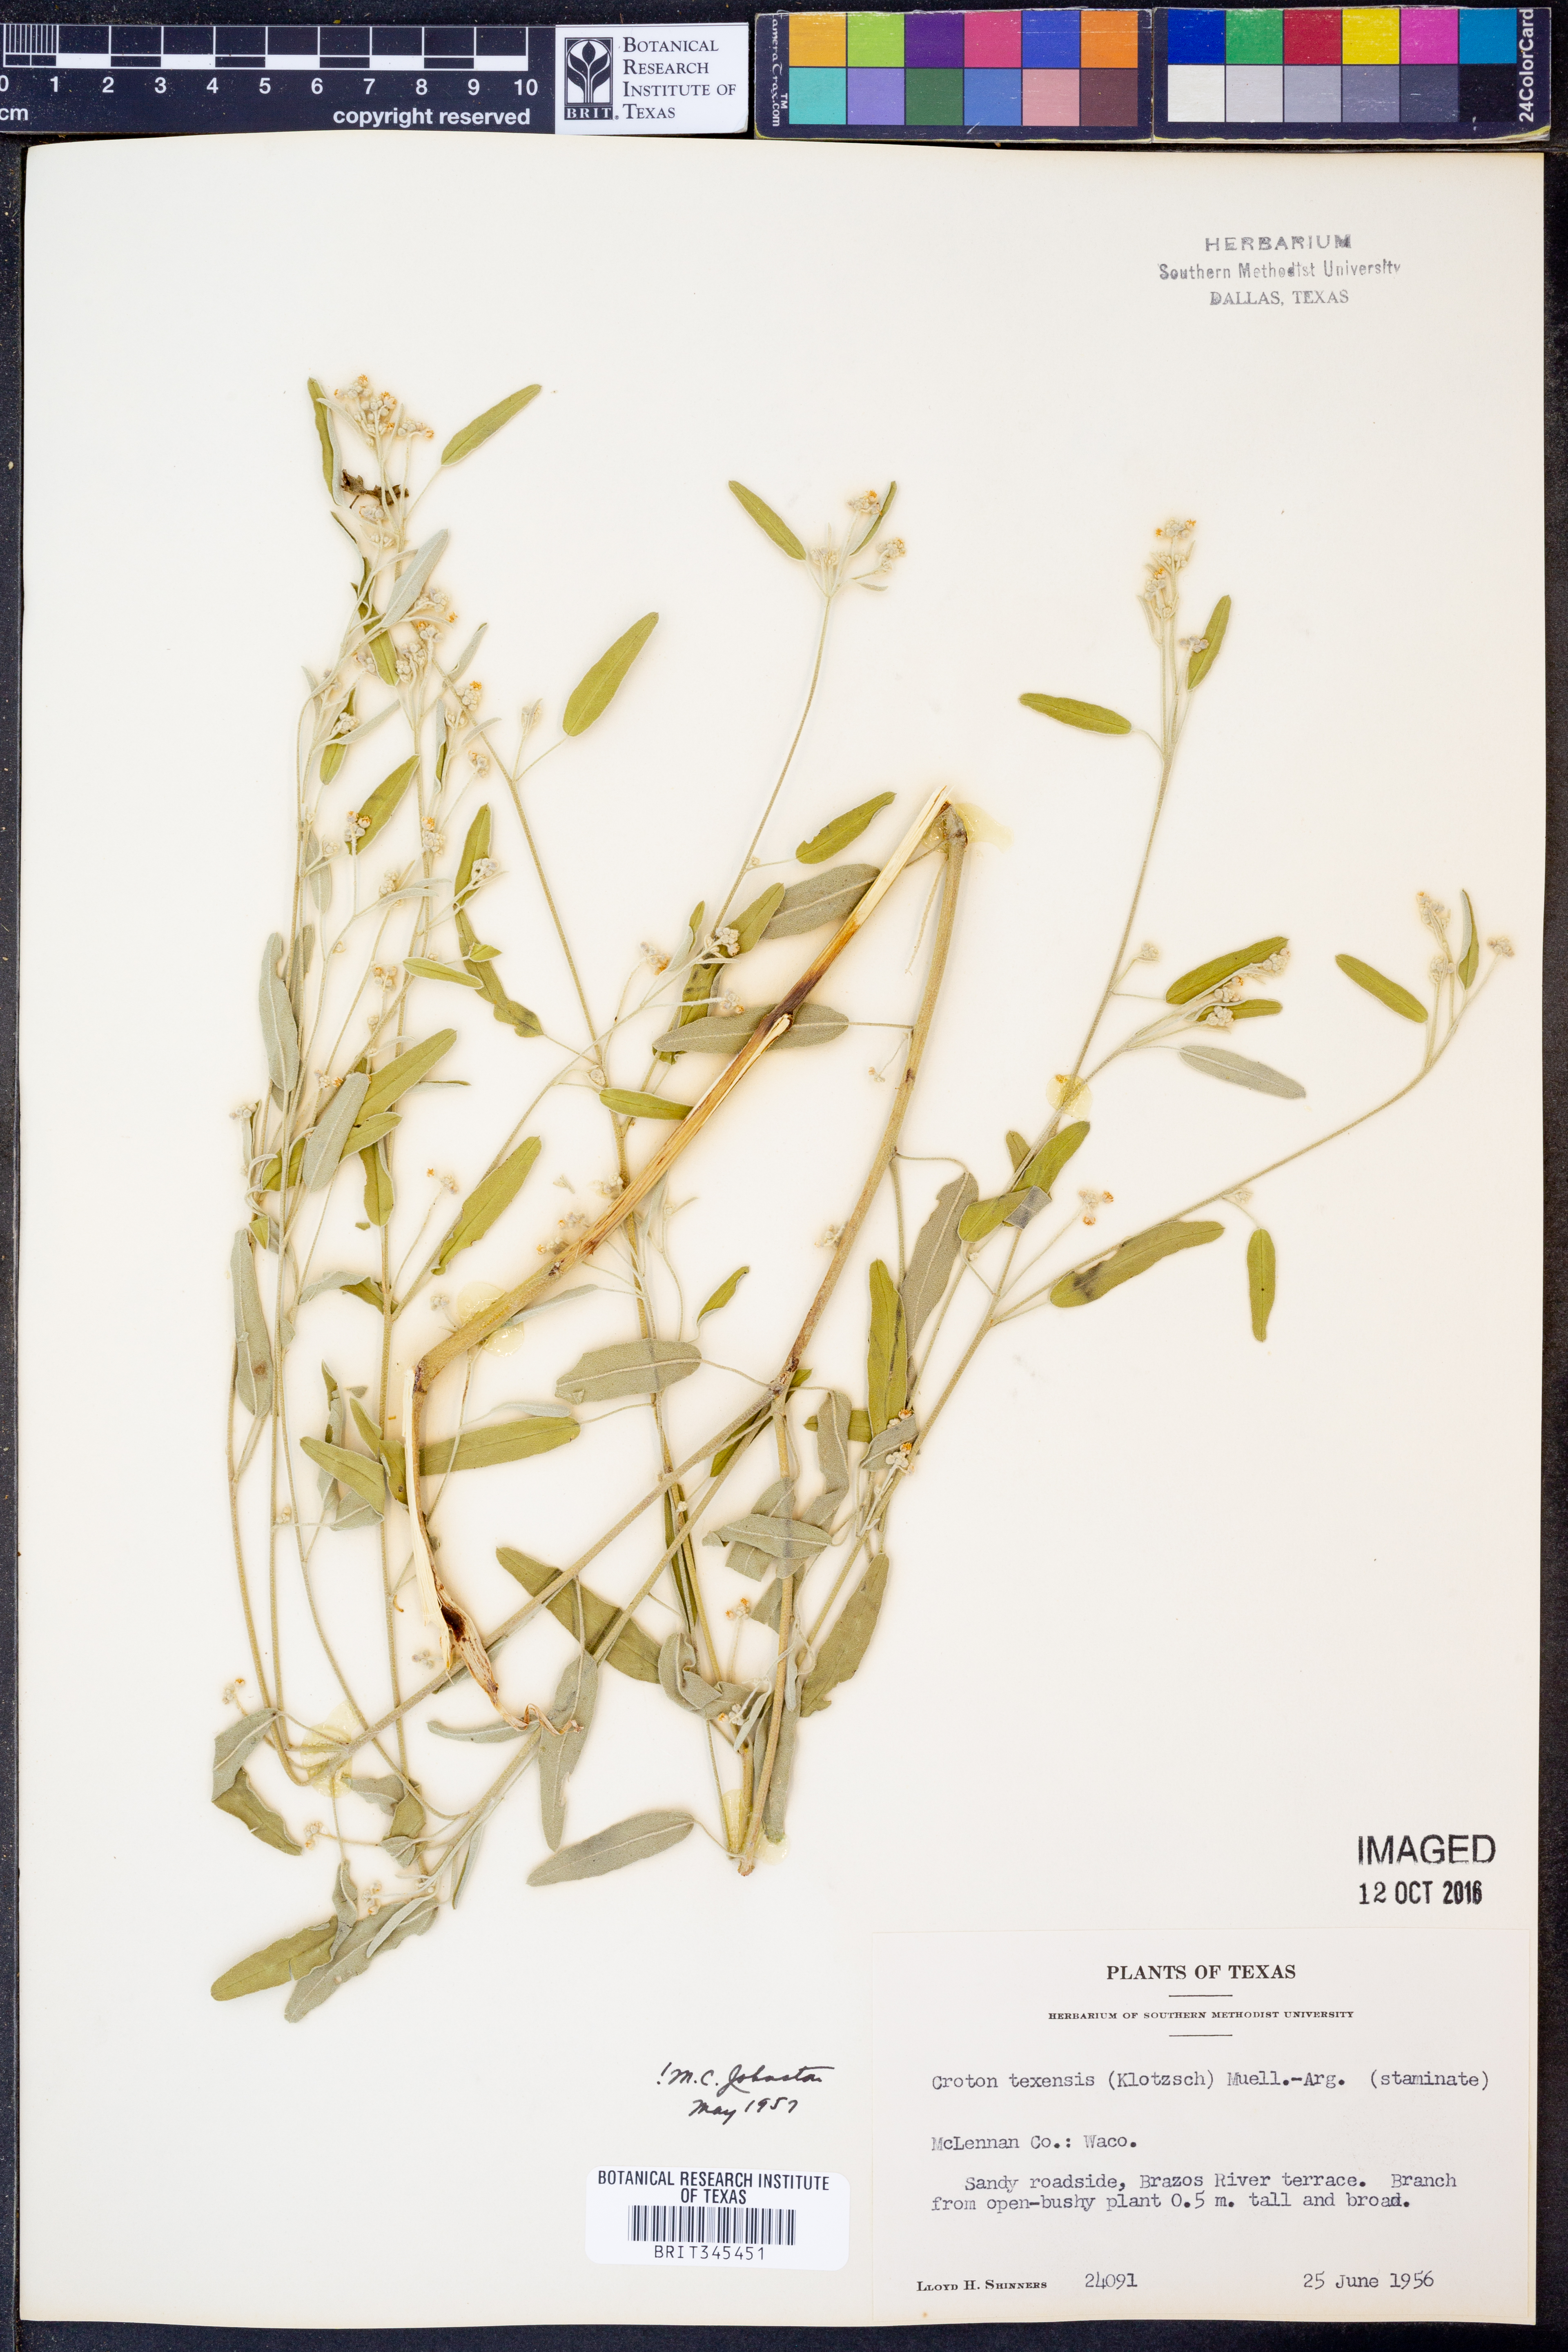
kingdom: Plantae
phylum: Tracheophyta
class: Magnoliopsida
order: Malpighiales
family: Euphorbiaceae
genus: Croton
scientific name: Croton texensis
